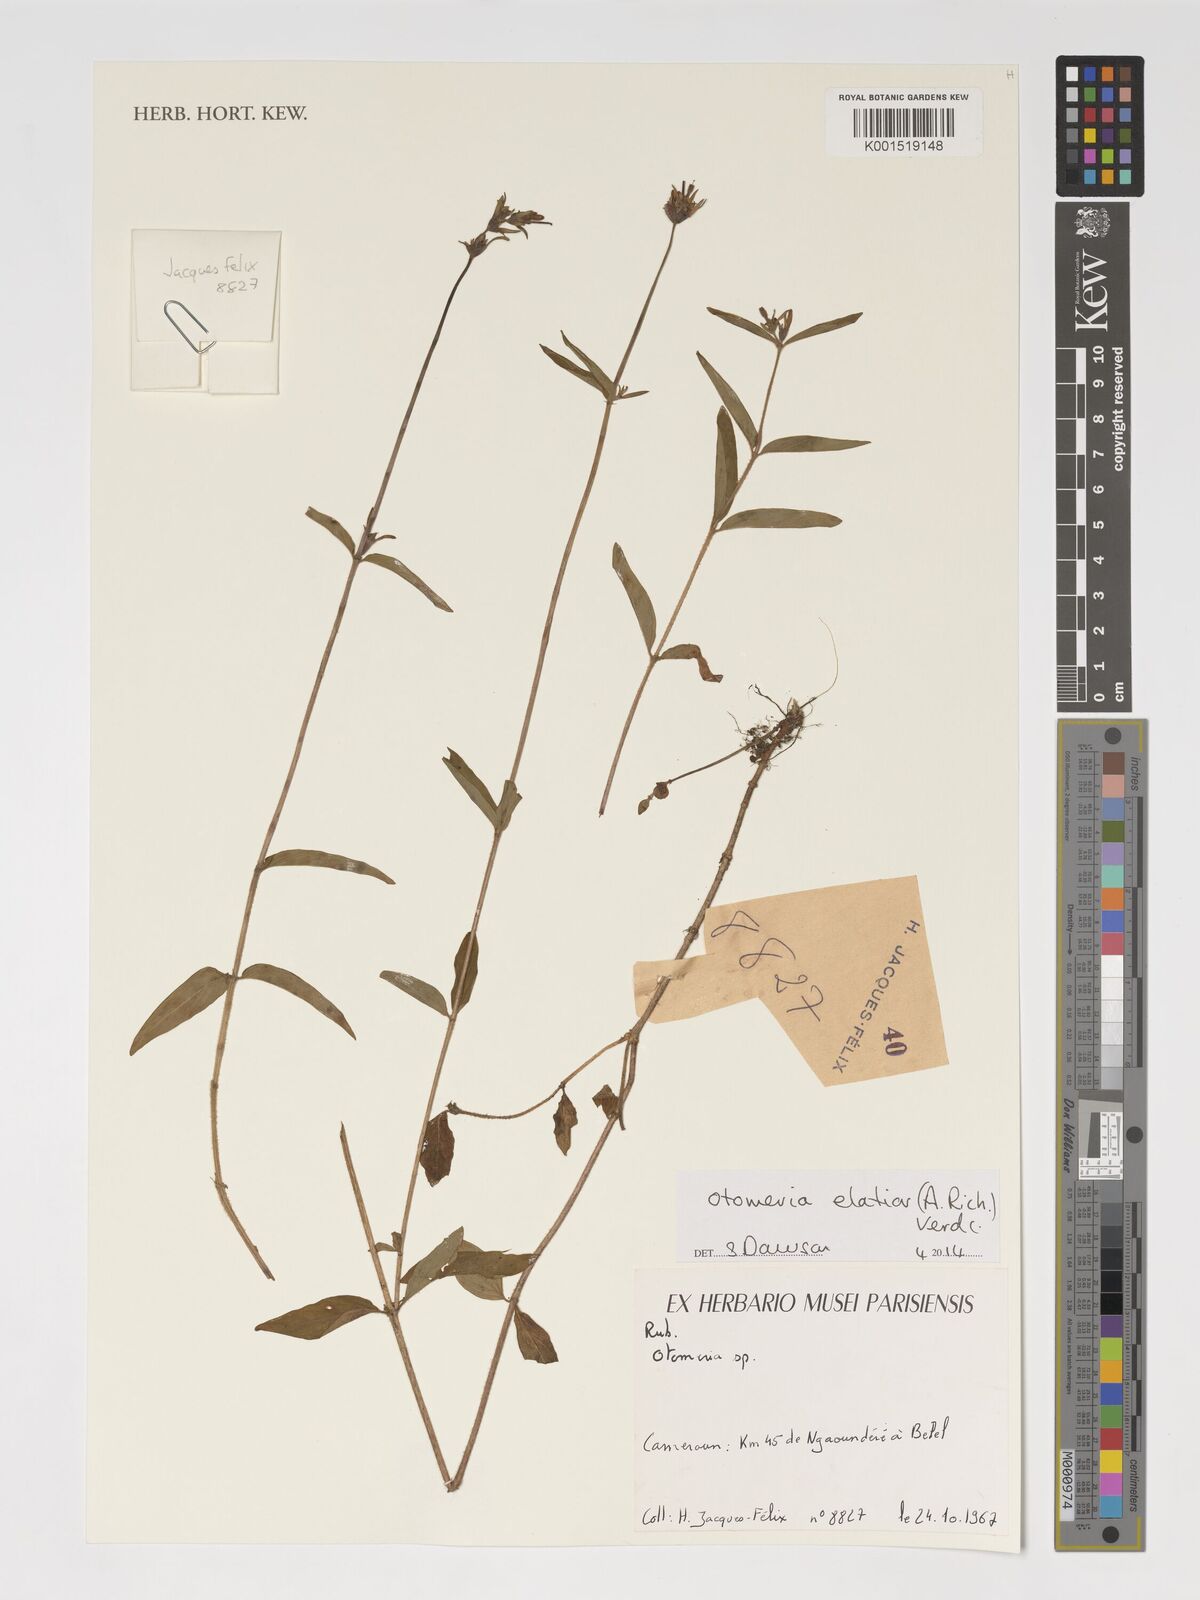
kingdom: Plantae
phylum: Tracheophyta
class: Magnoliopsida
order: Gentianales
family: Rubiaceae
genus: Otomeria
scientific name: Otomeria elatior
